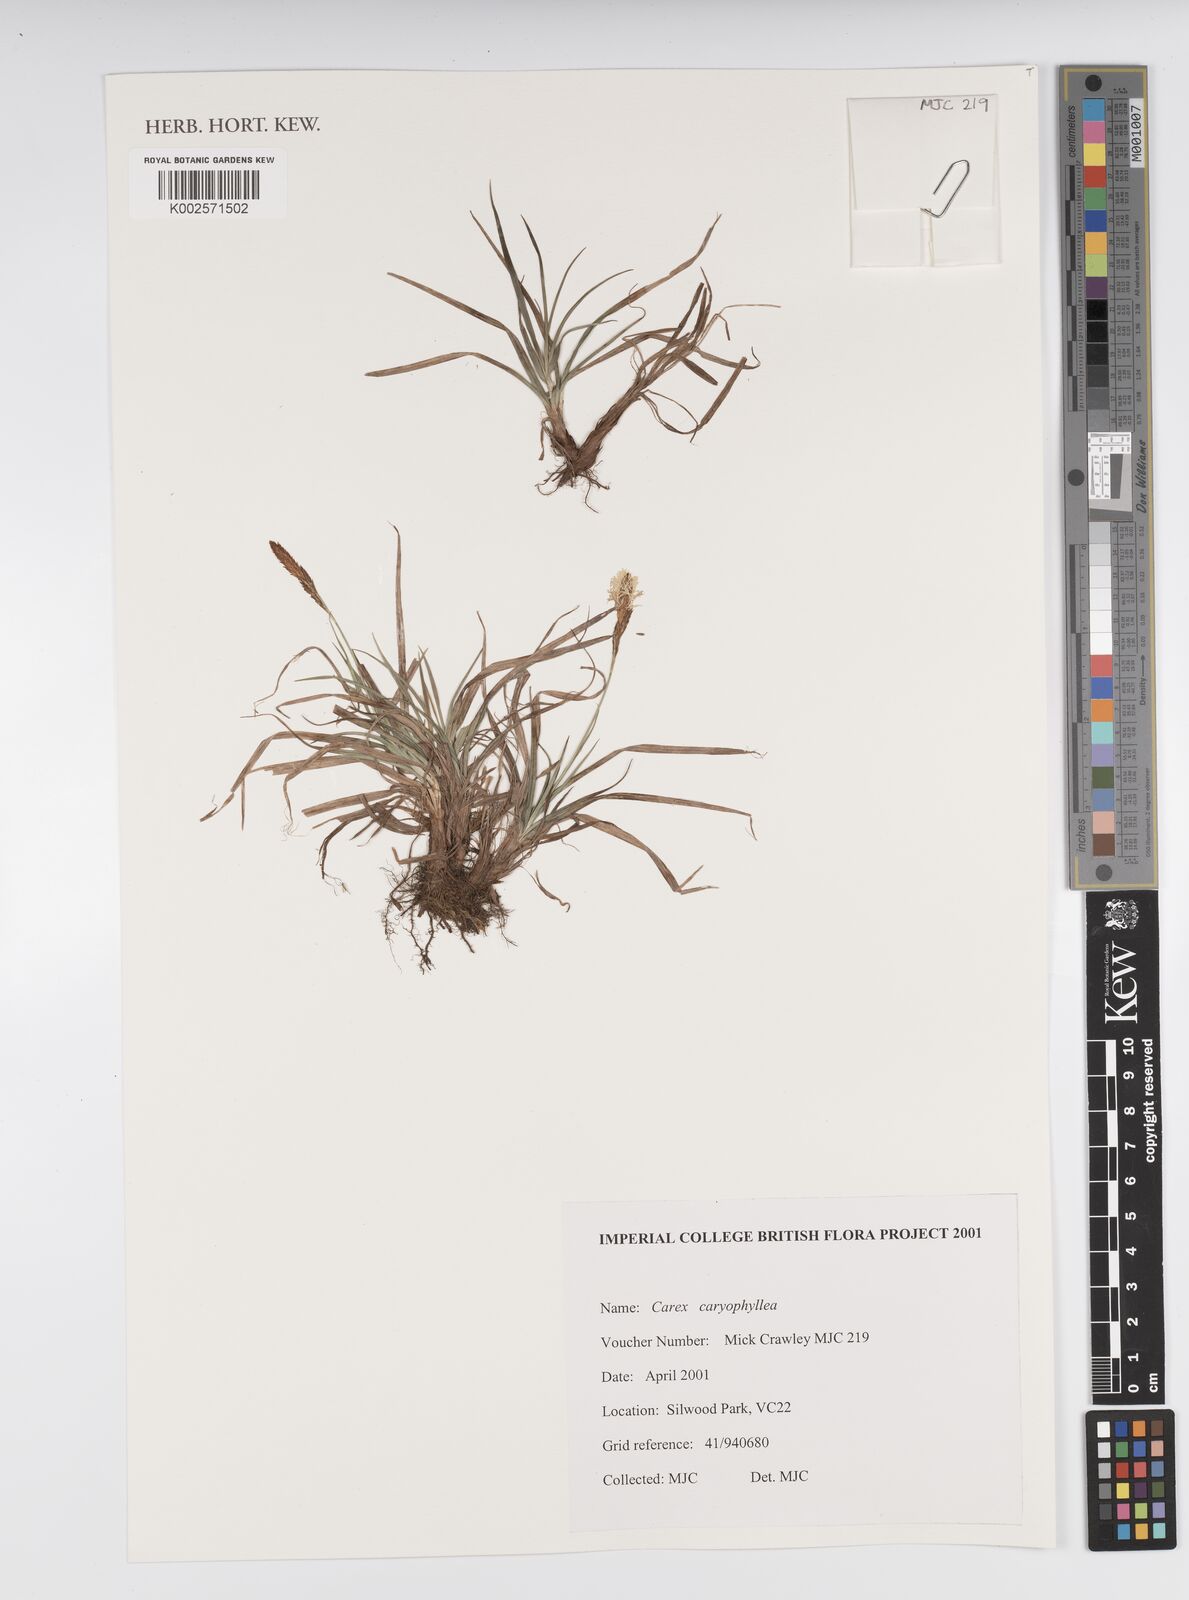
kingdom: Plantae
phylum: Tracheophyta
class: Liliopsida
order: Poales
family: Cyperaceae
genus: Carex
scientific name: Carex caryophyllea
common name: Spring sedge
